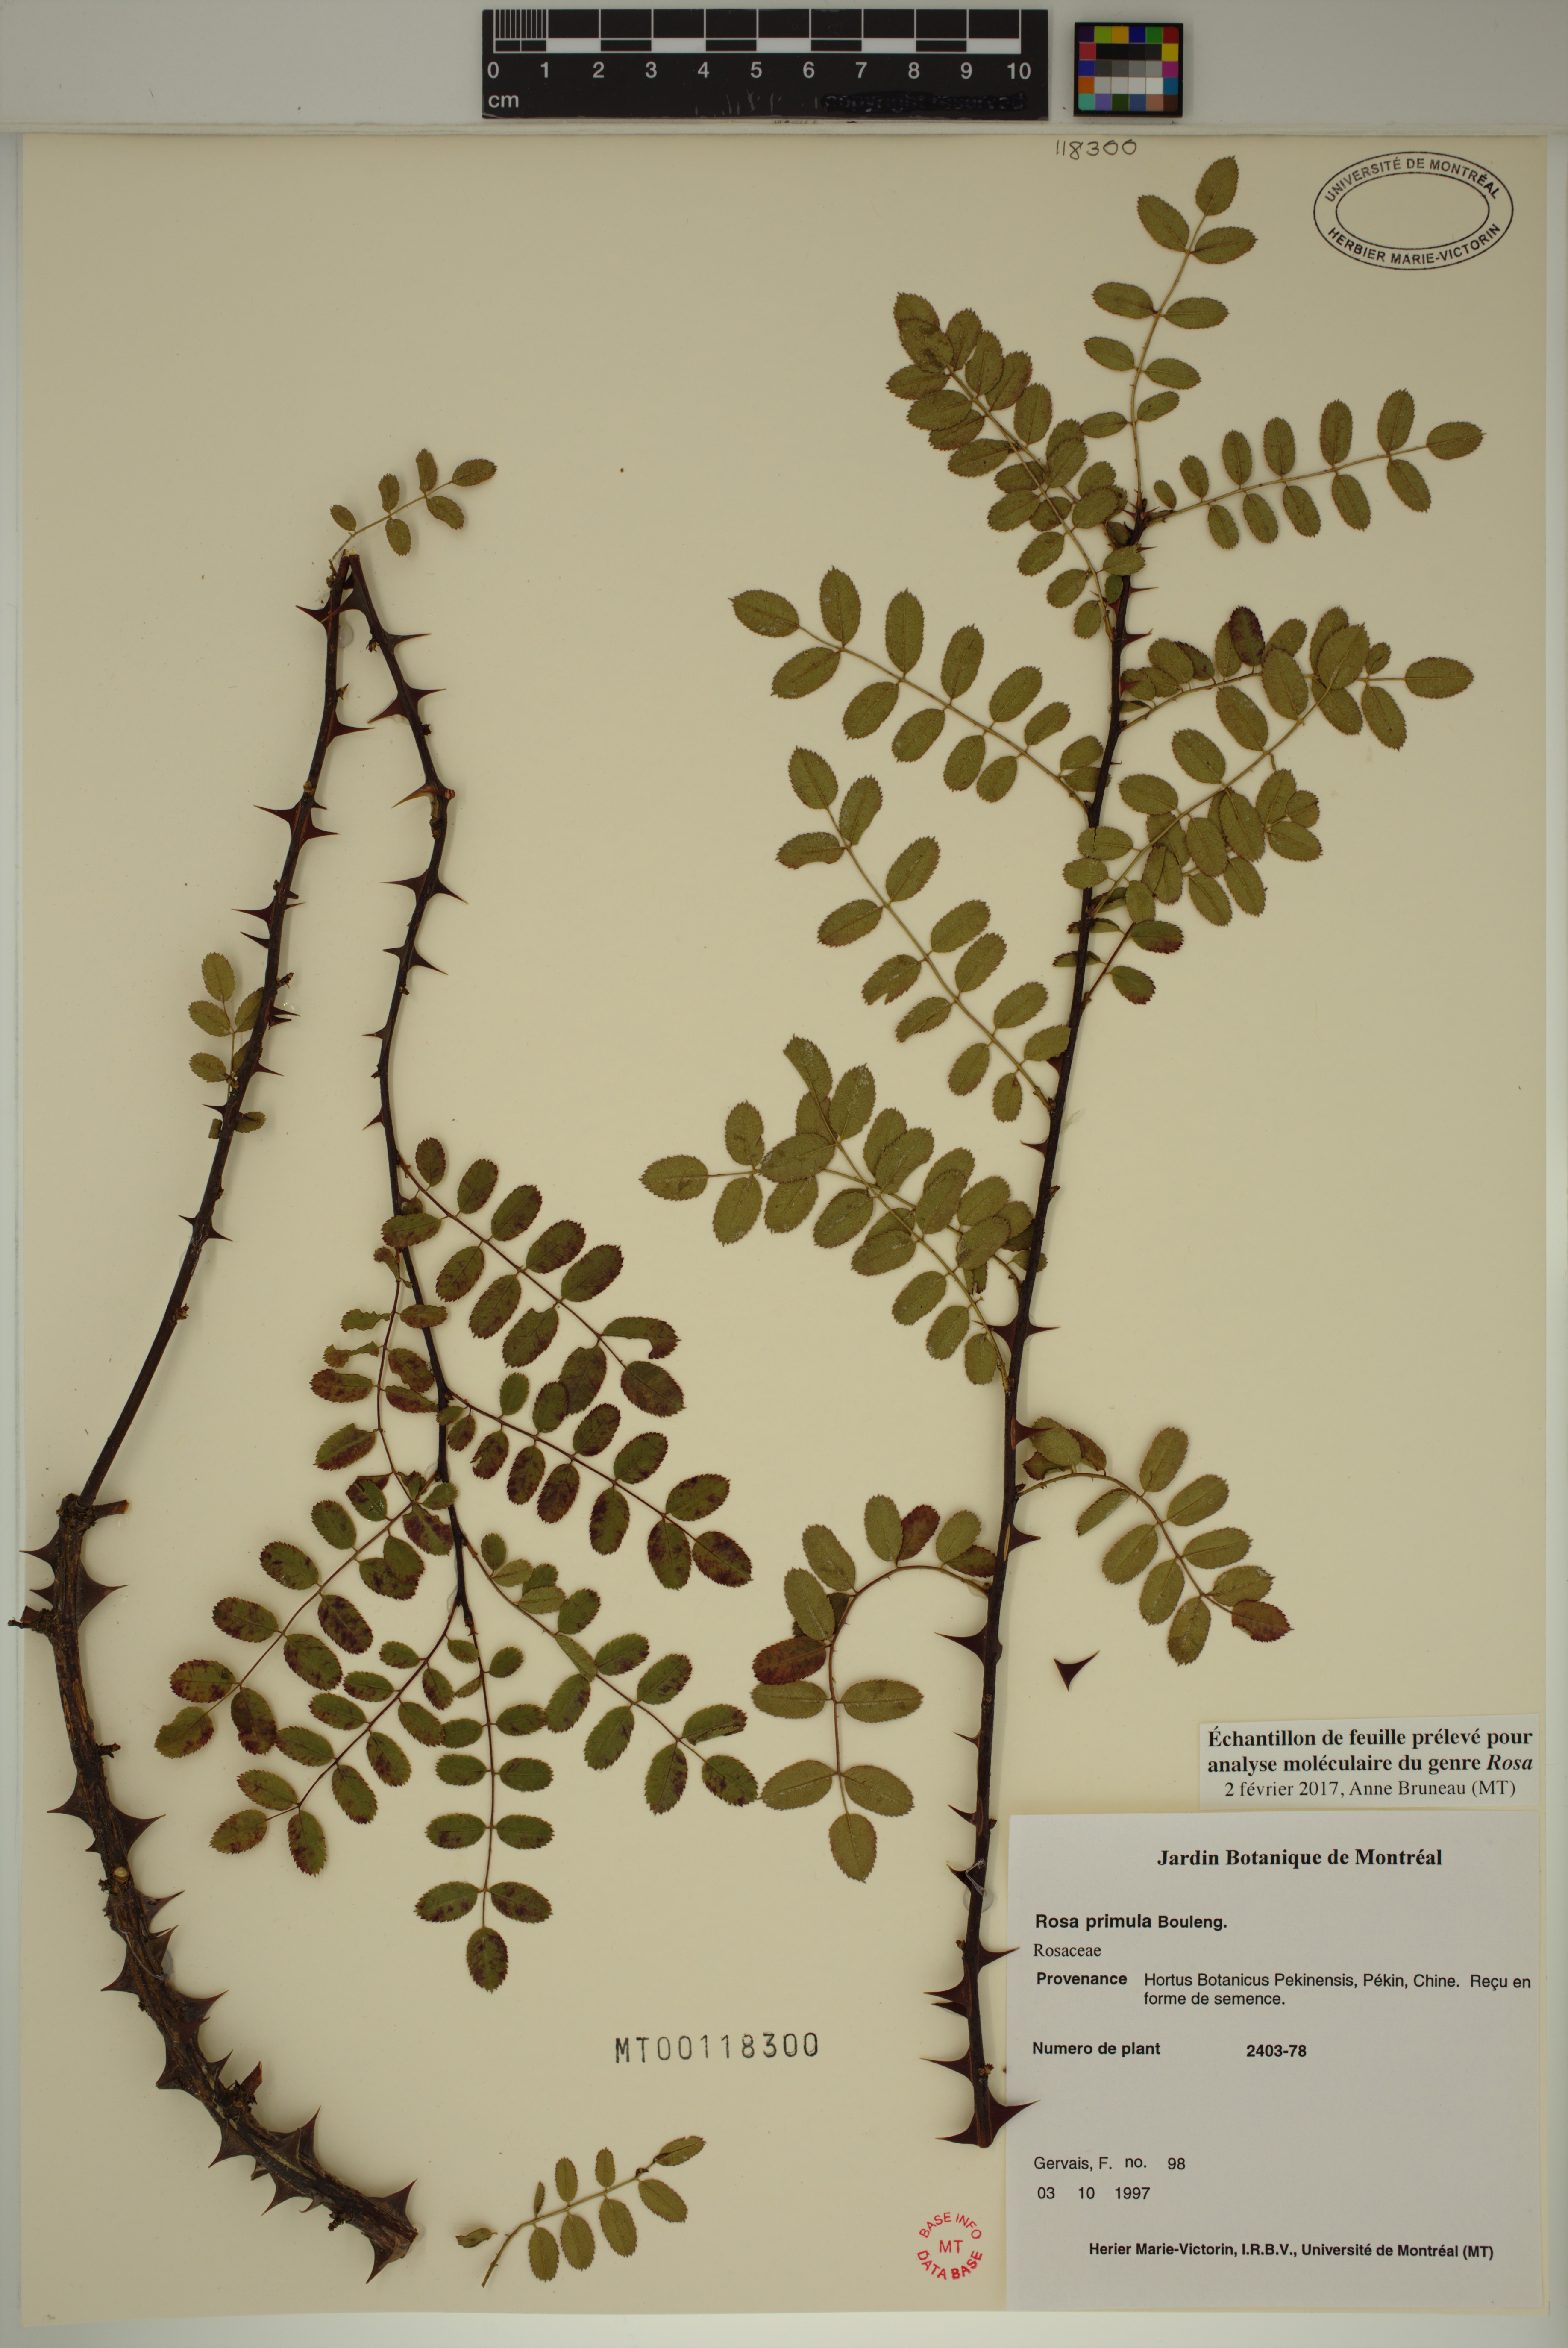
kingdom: Plantae
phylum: Tracheophyta
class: Magnoliopsida
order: Rosales
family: Rosaceae
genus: Rosa
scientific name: Rosa primula
